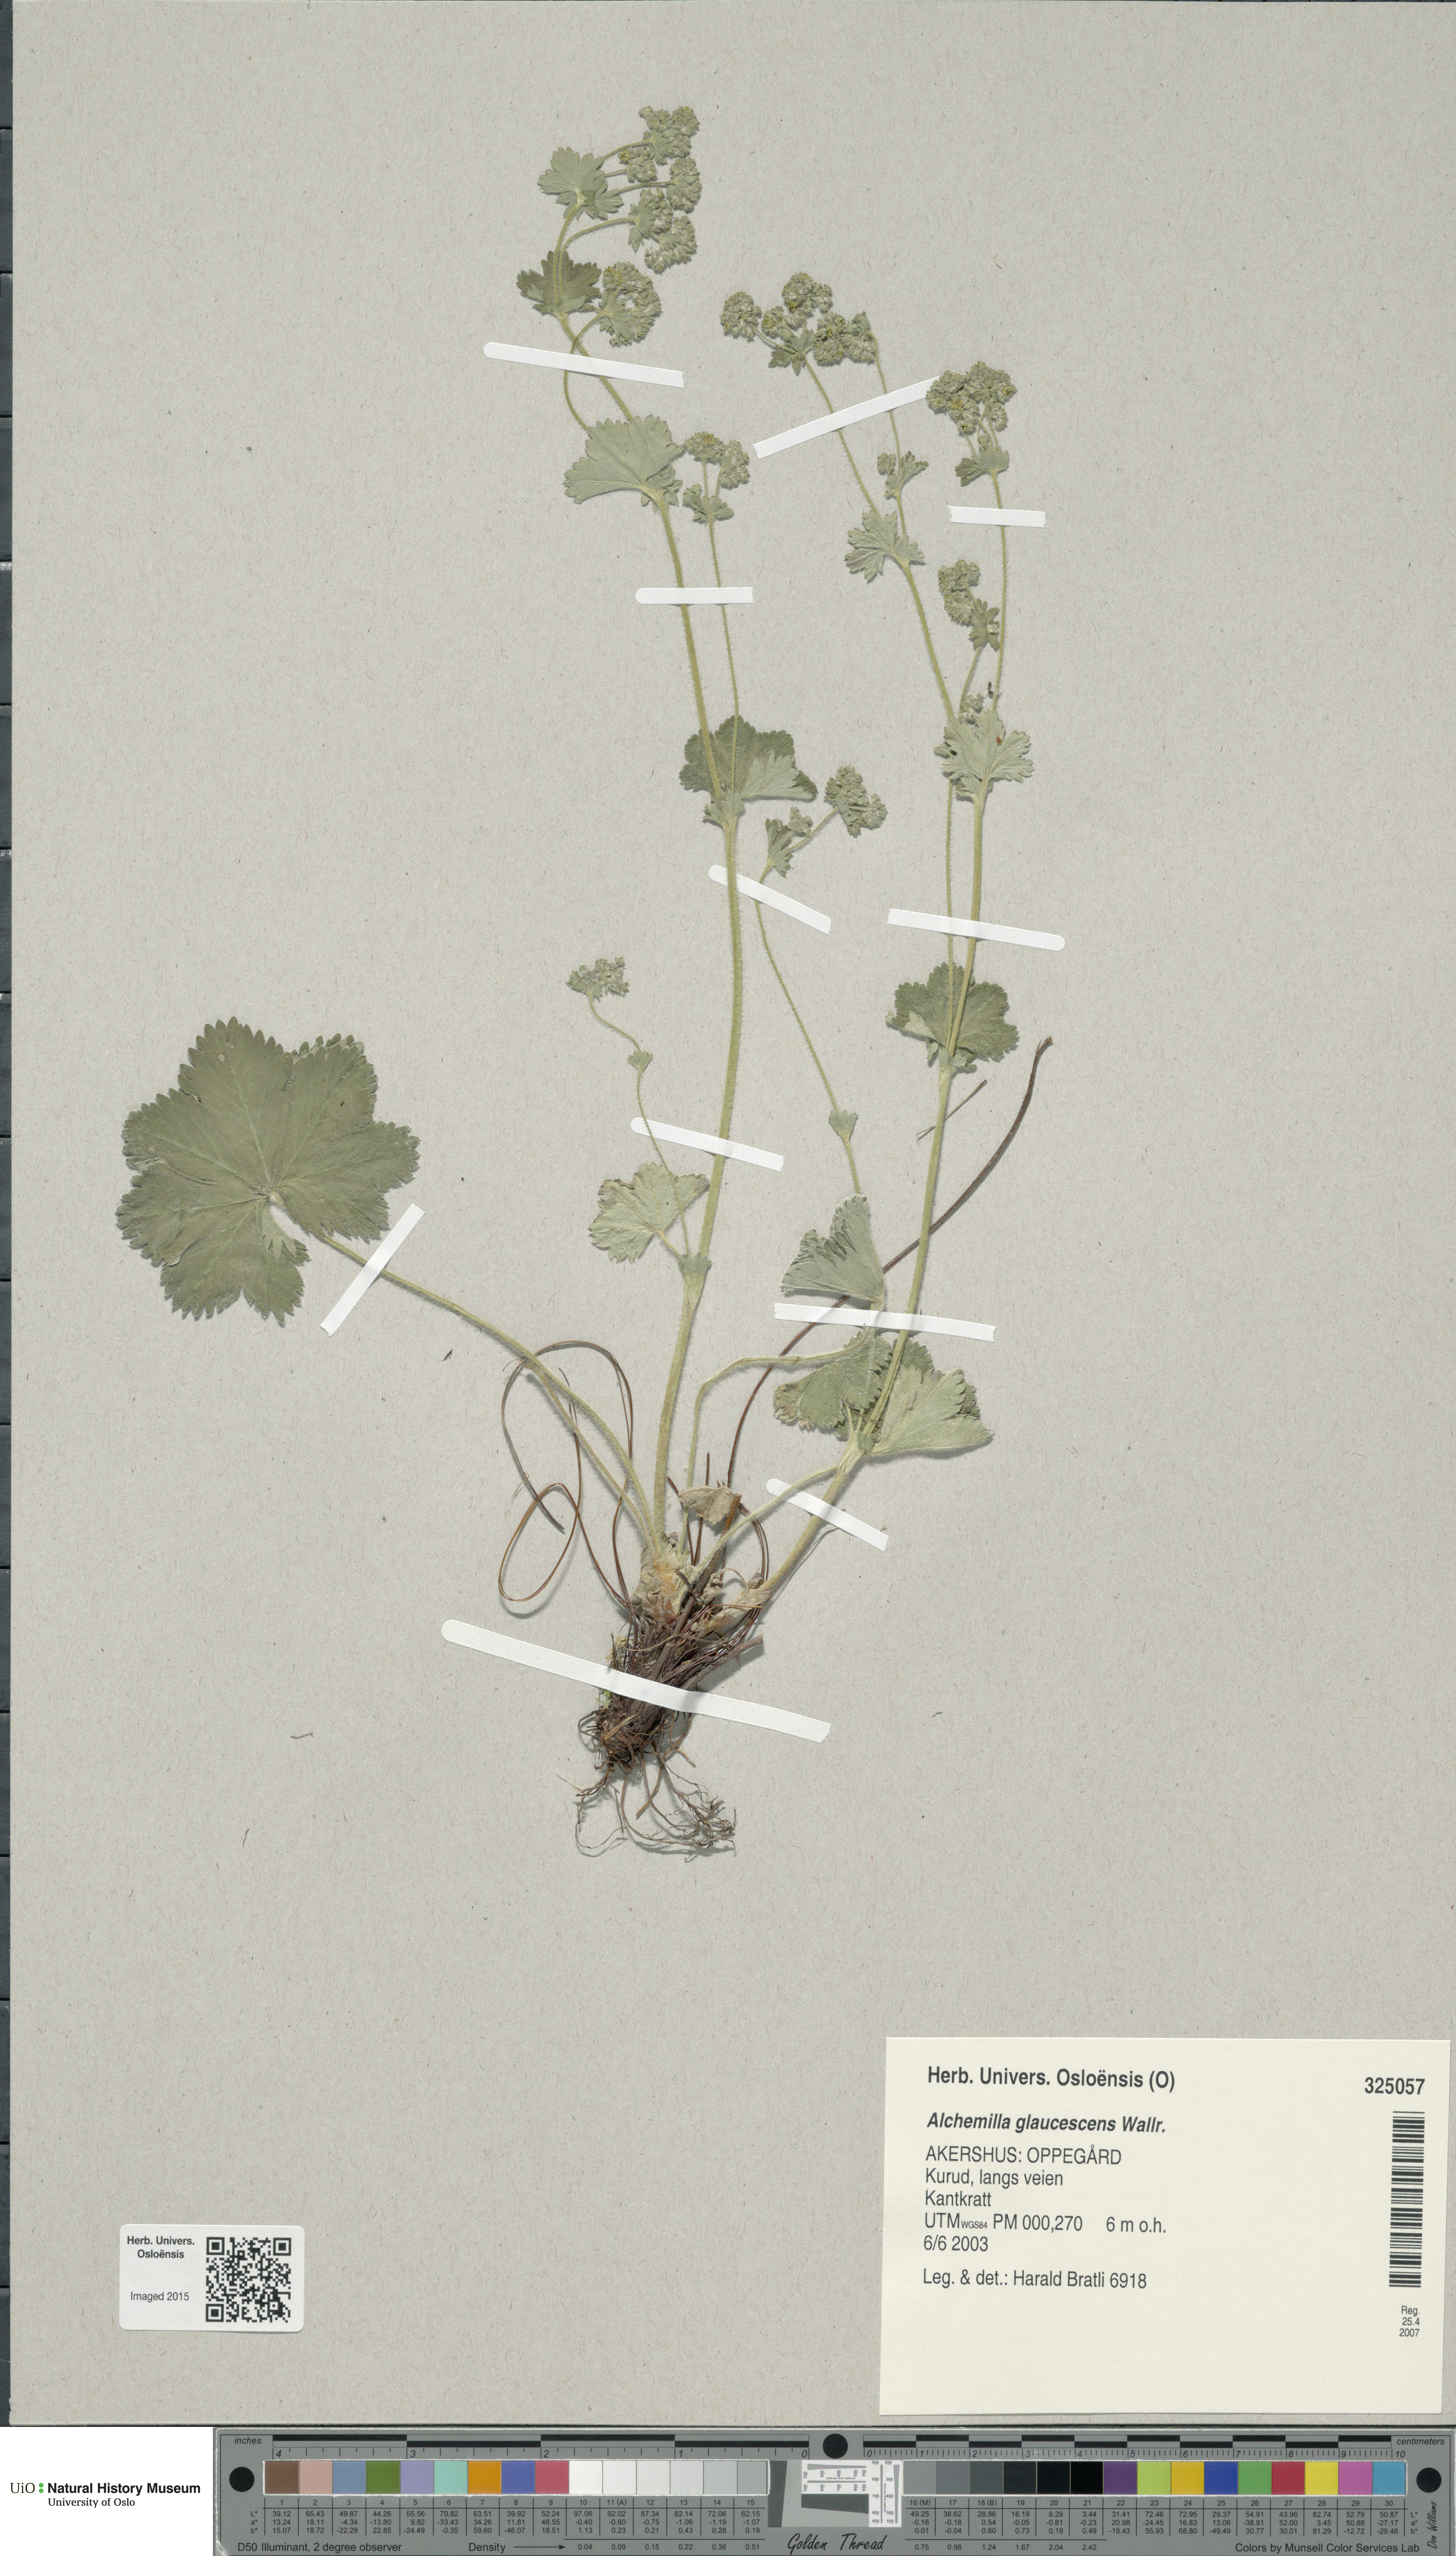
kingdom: Plantae
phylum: Tracheophyta
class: Magnoliopsida
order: Rosales
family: Rosaceae
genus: Alchemilla
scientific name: Alchemilla glaucescens
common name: Silky lady's mantle
